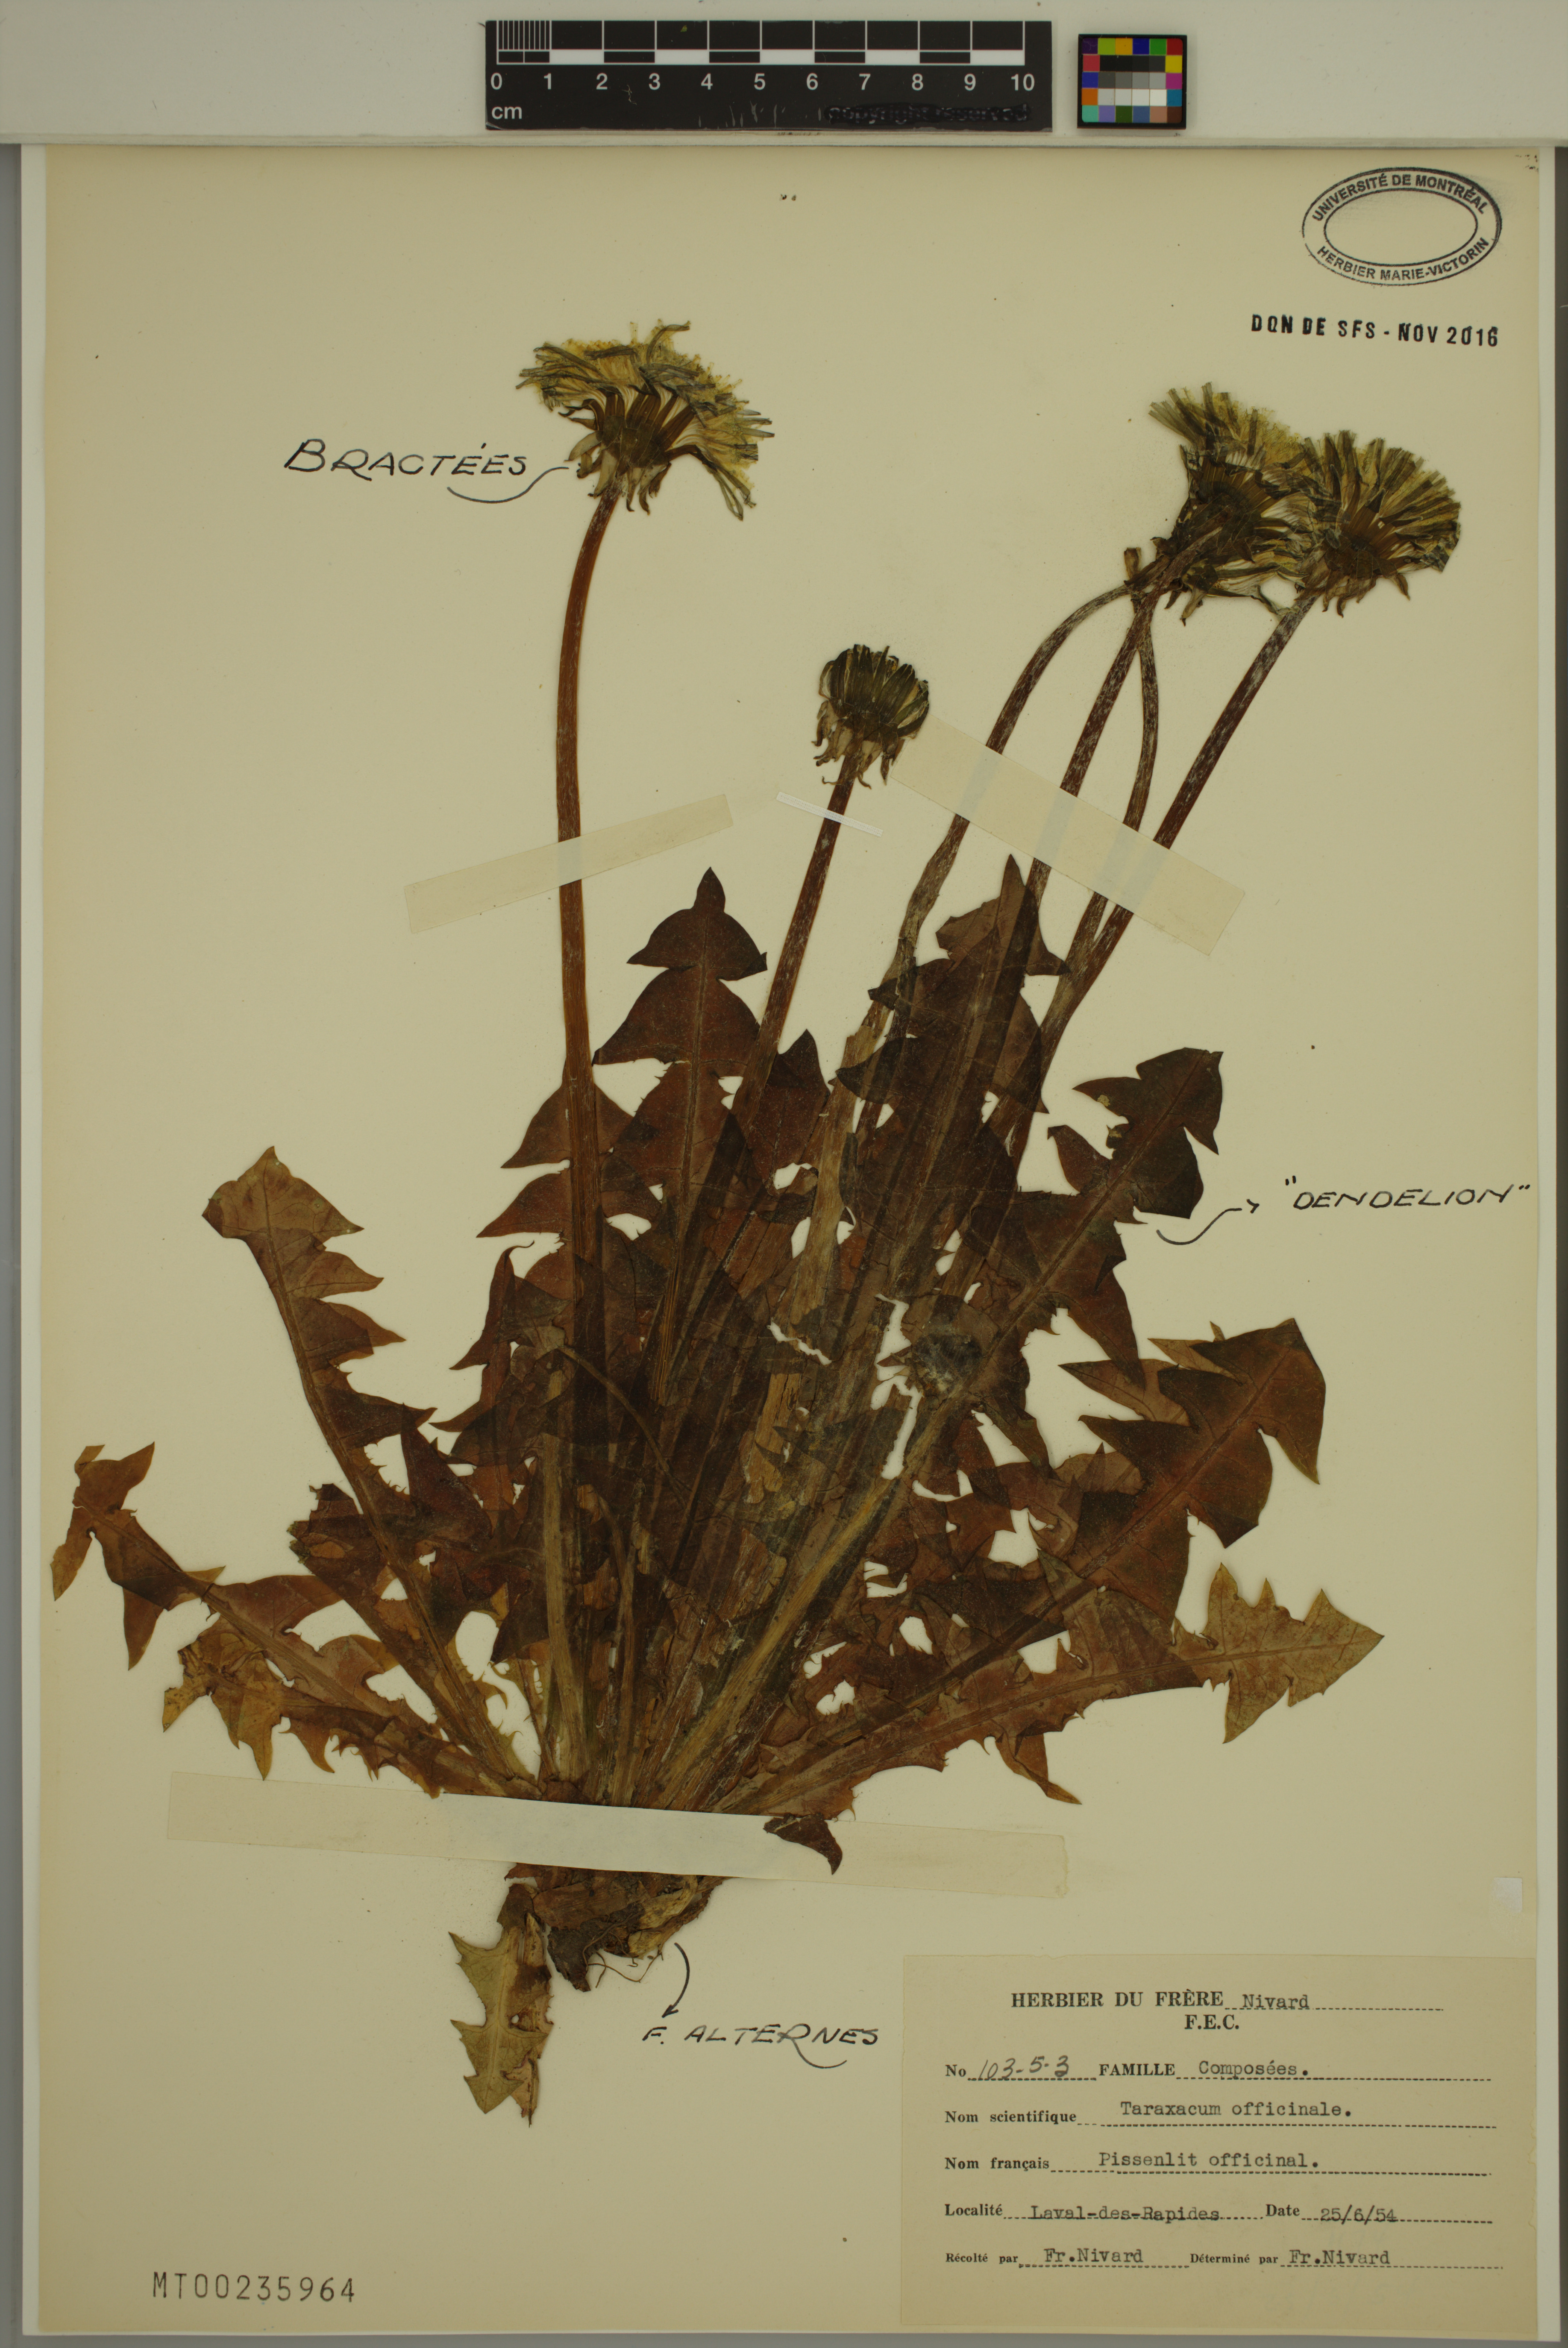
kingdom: Plantae
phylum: Tracheophyta
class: Magnoliopsida
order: Asterales
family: Asteraceae
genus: Taraxacum
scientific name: Taraxacum officinale
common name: Common dandelion
